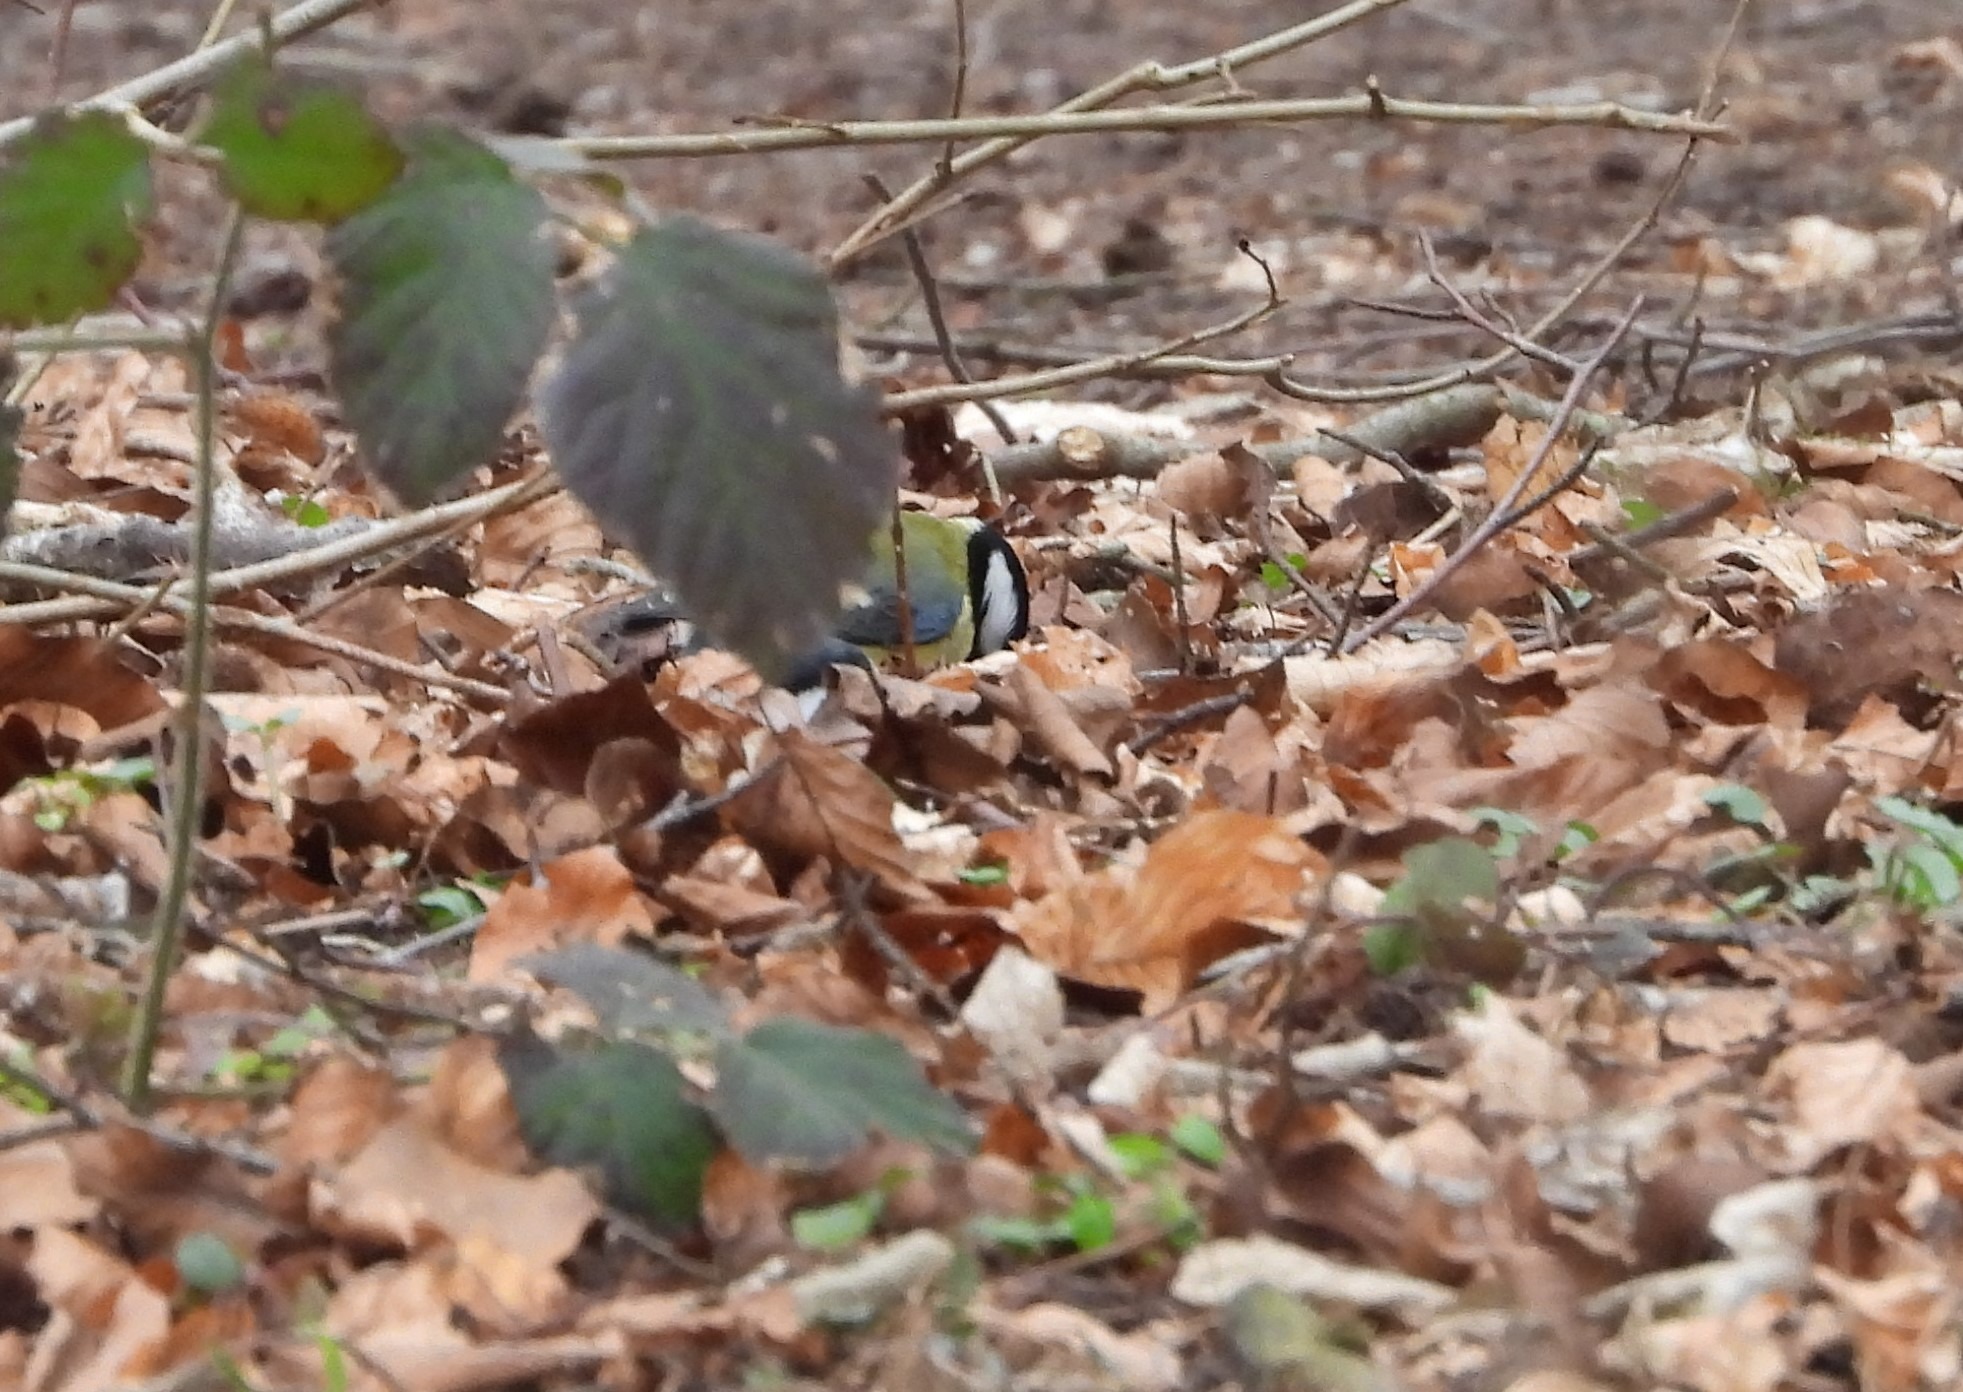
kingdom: Animalia
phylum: Chordata
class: Aves
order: Passeriformes
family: Paridae
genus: Parus
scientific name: Parus major
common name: Musvit
